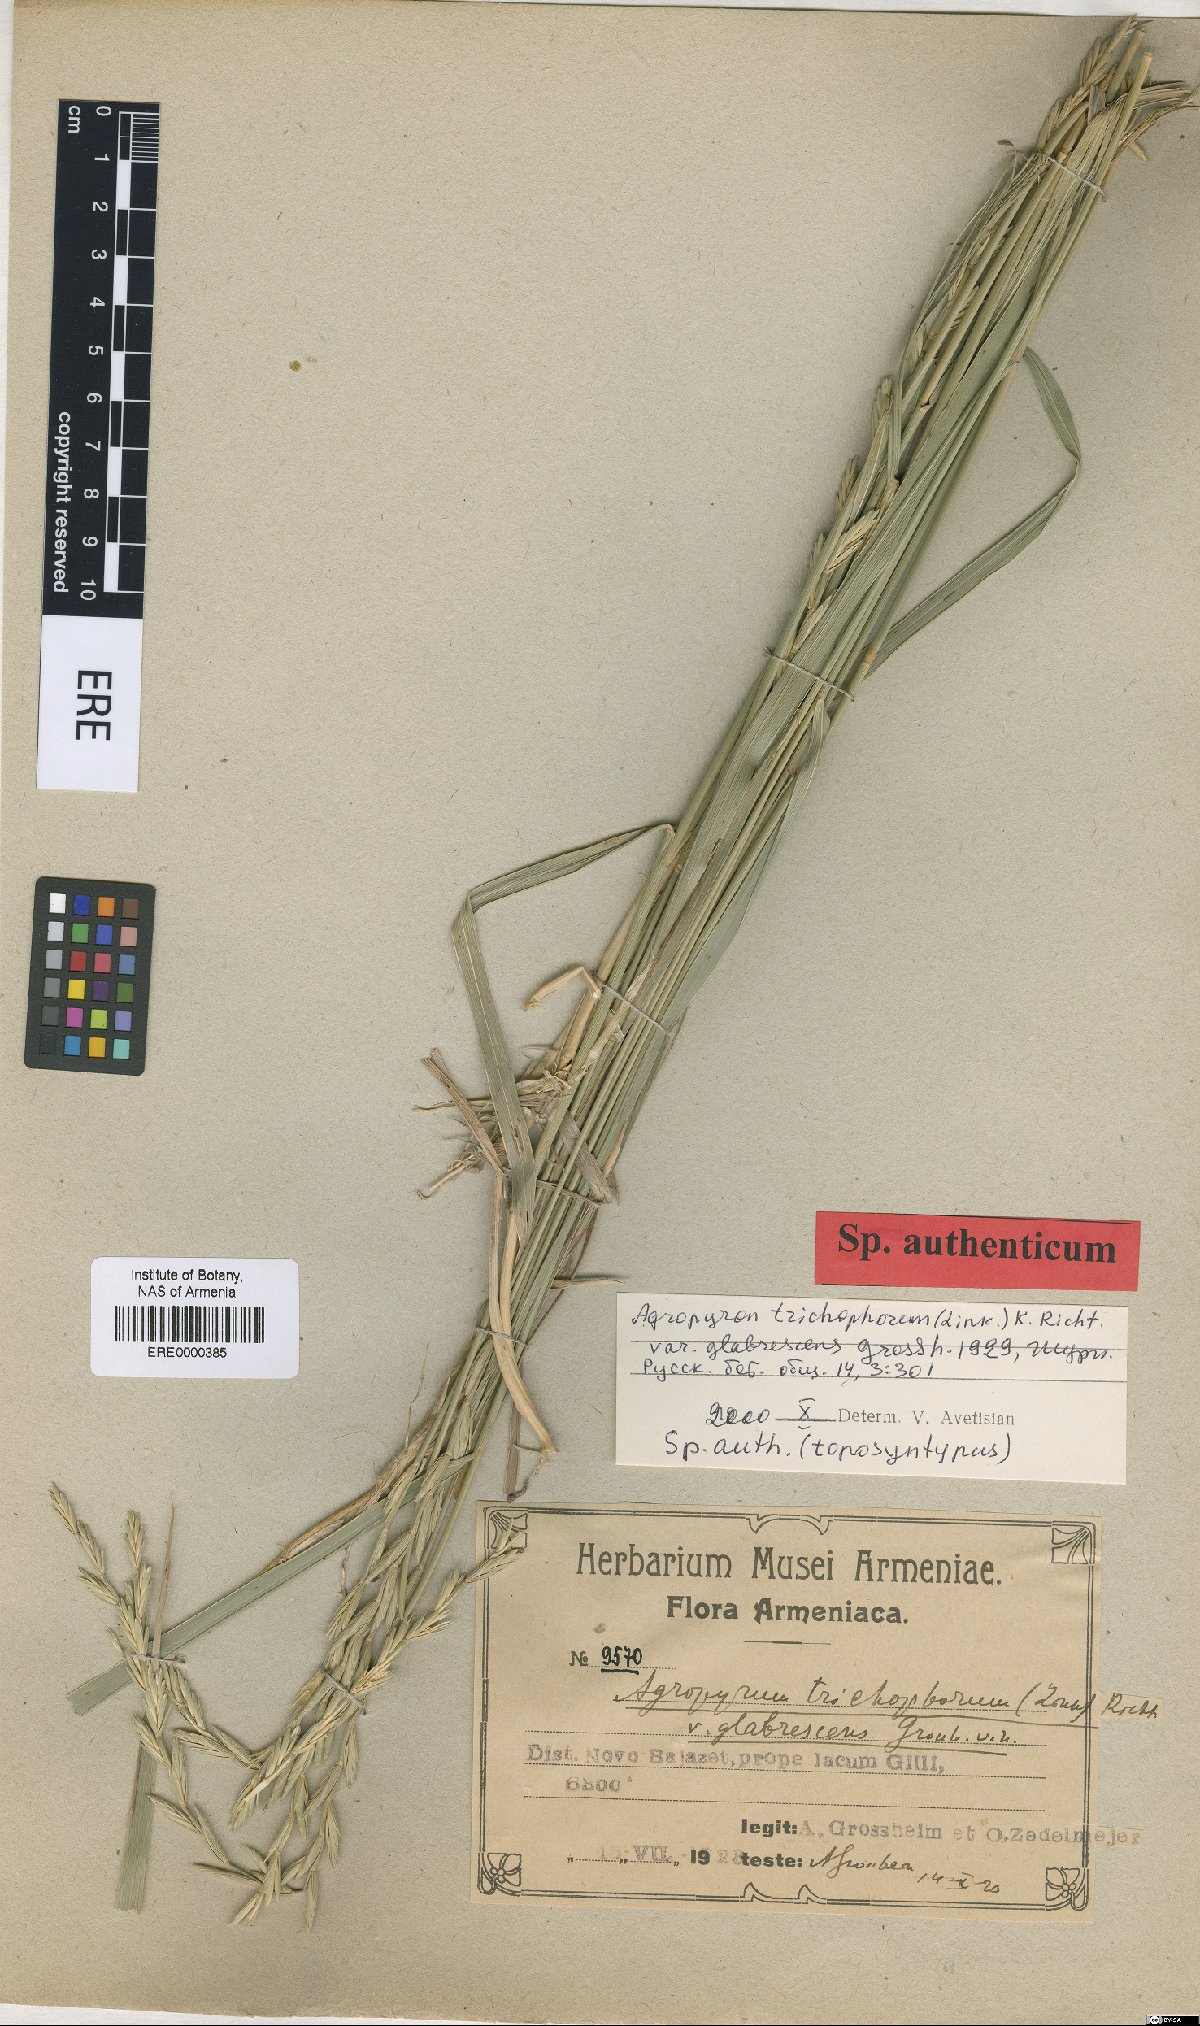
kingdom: Plantae
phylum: Tracheophyta
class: Liliopsida
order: Poales
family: Poaceae
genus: Thinopyrum
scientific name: Thinopyrum intermedium
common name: Intermediate wheatgrass
